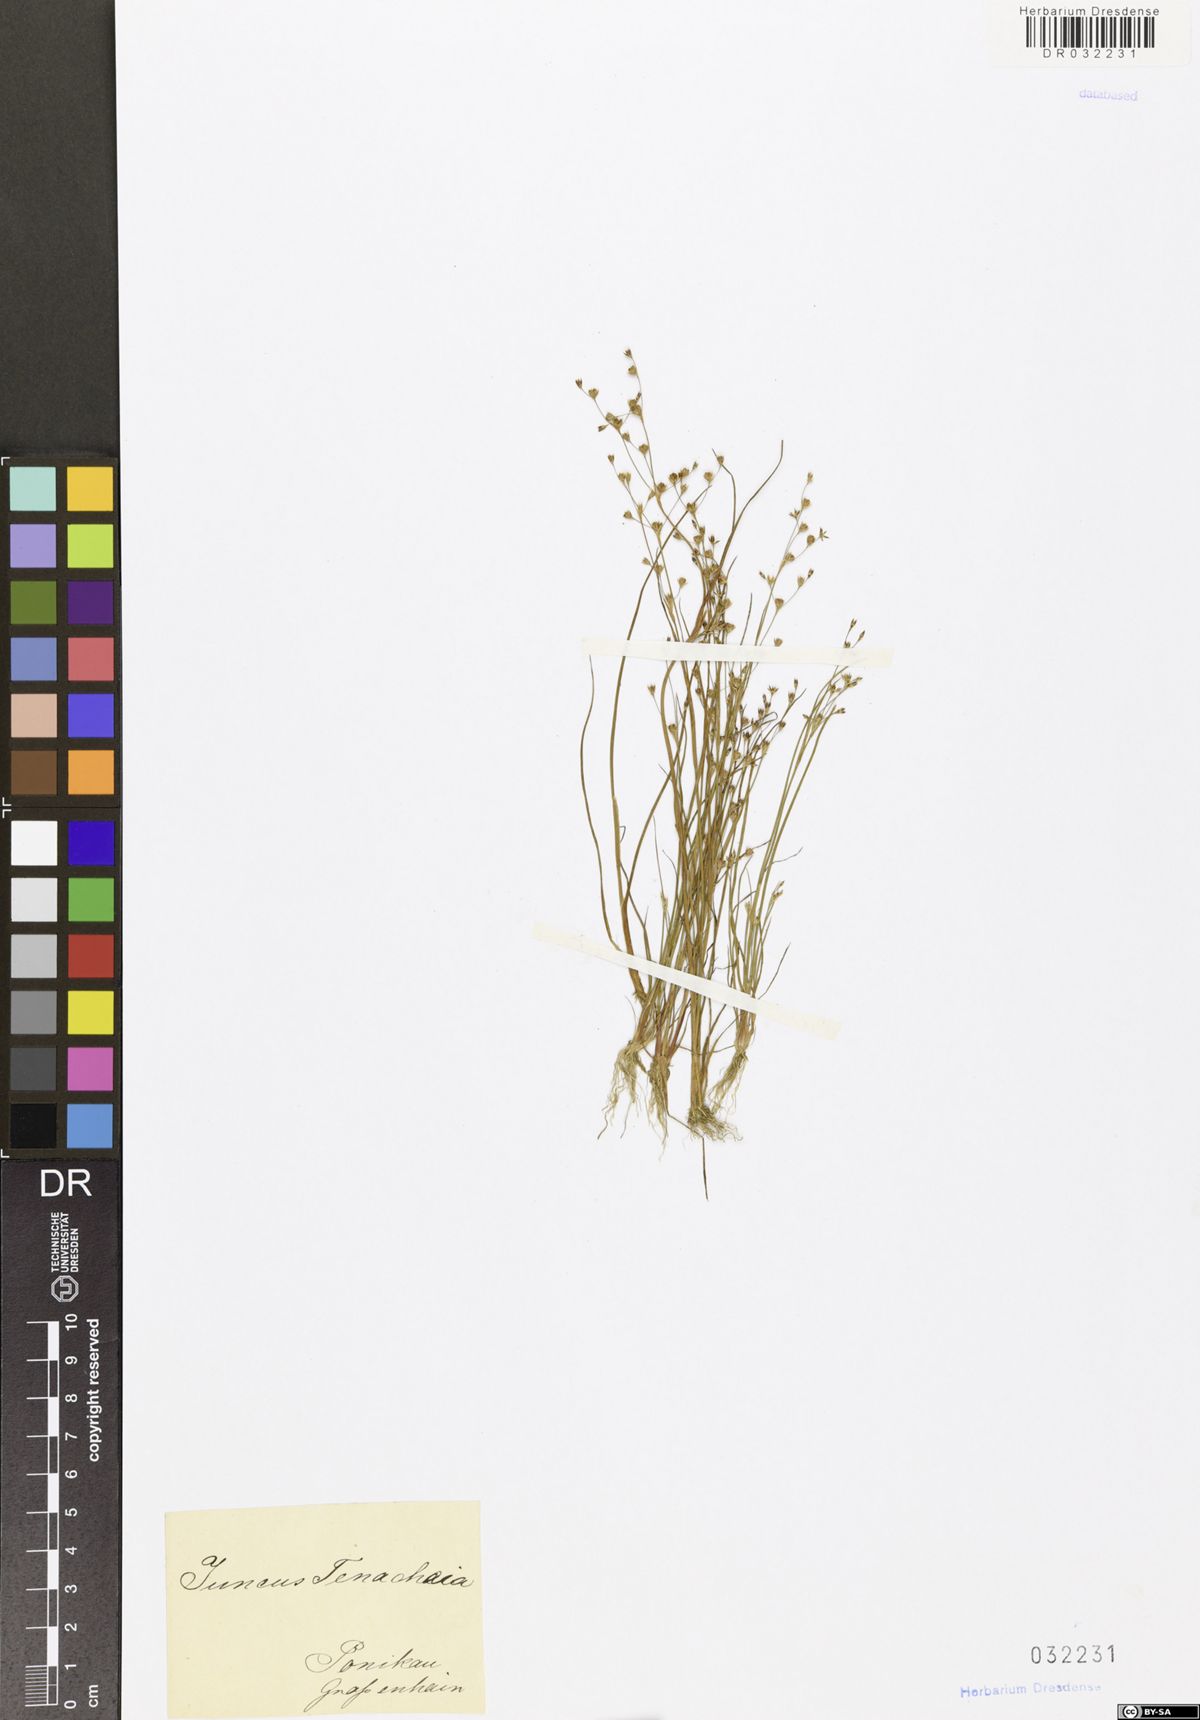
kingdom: Plantae
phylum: Tracheophyta
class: Liliopsida
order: Poales
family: Juncaceae
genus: Juncus
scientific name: Juncus tenageia
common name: Sand rush
